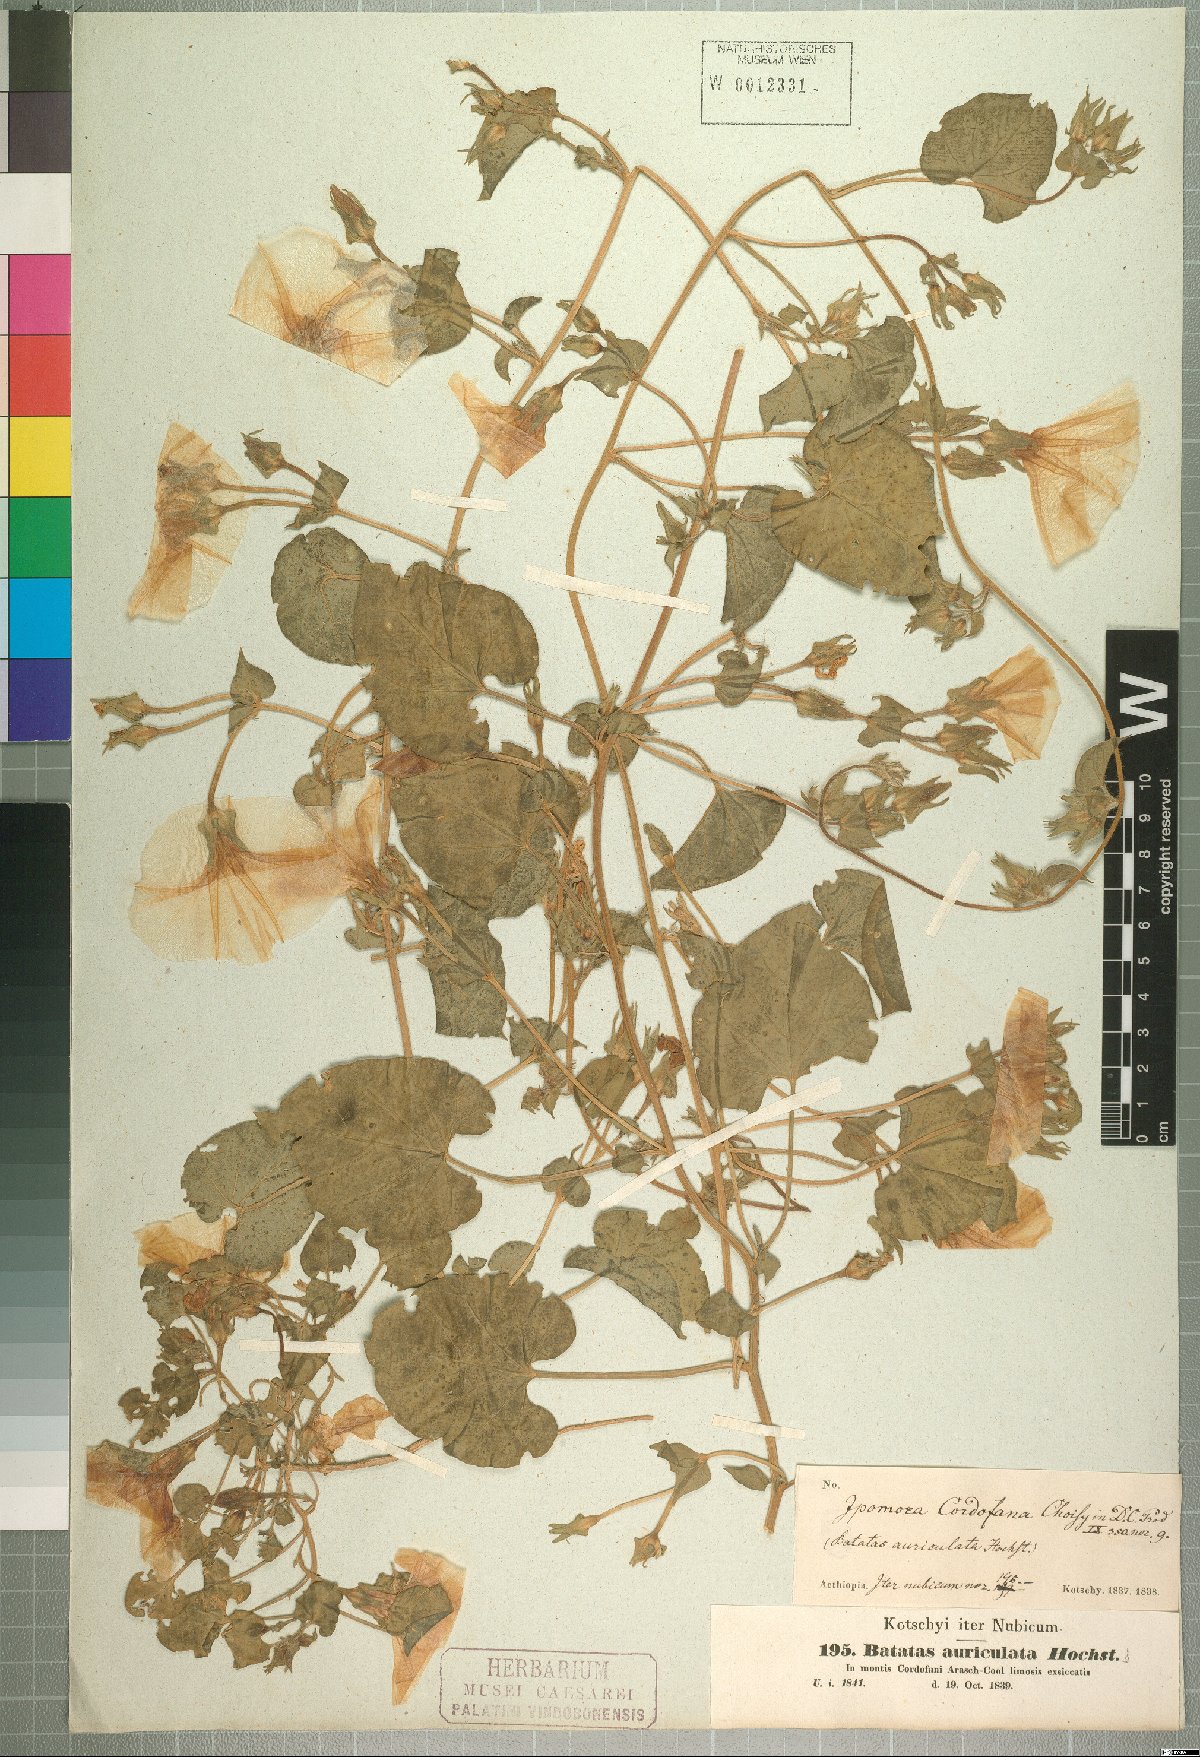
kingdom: Plantae
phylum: Tracheophyta
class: Magnoliopsida
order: Solanales
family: Convolvulaceae
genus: Ipomoea
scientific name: Ipomoea cordofana
